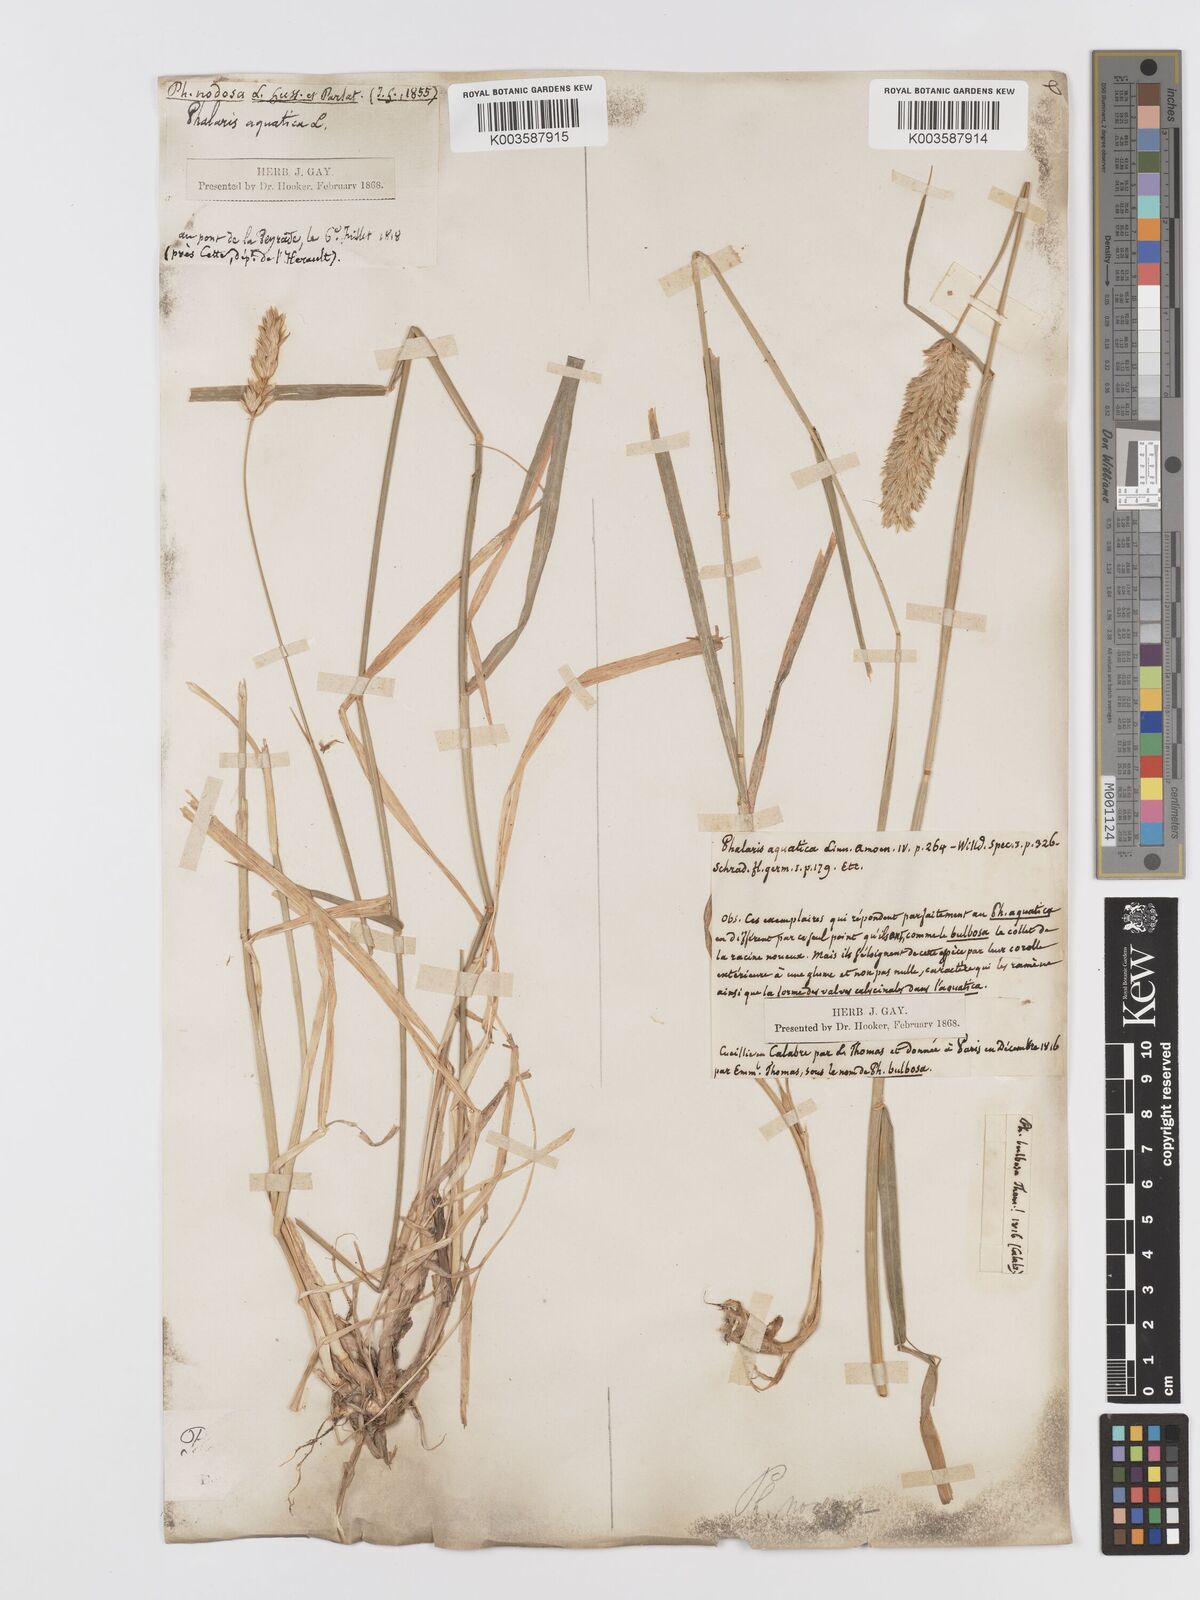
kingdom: Plantae
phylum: Tracheophyta
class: Liliopsida
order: Poales
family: Poaceae
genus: Phalaris
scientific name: Phalaris
